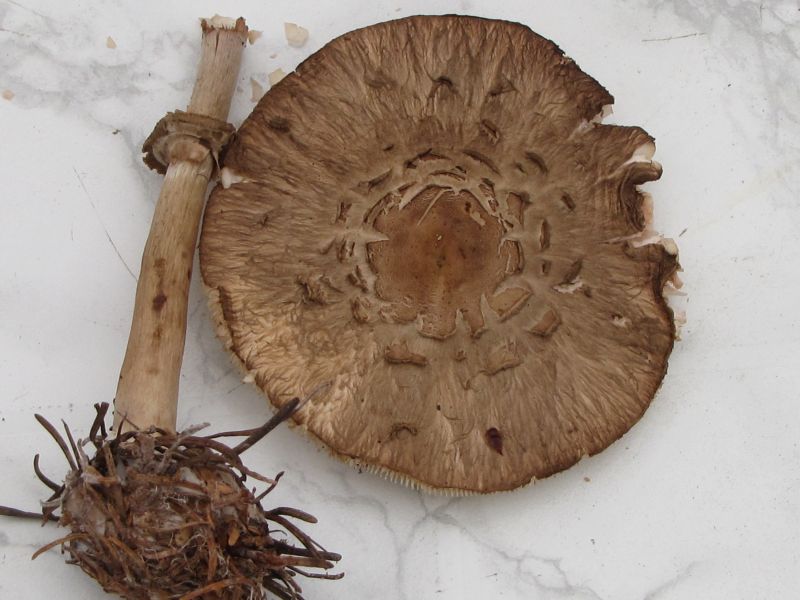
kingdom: Fungi
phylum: Basidiomycota
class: Agaricomycetes
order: Agaricales
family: Agaricaceae
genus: Chlorophyllum
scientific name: Chlorophyllum olivieri
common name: almindelig rabarberhat
